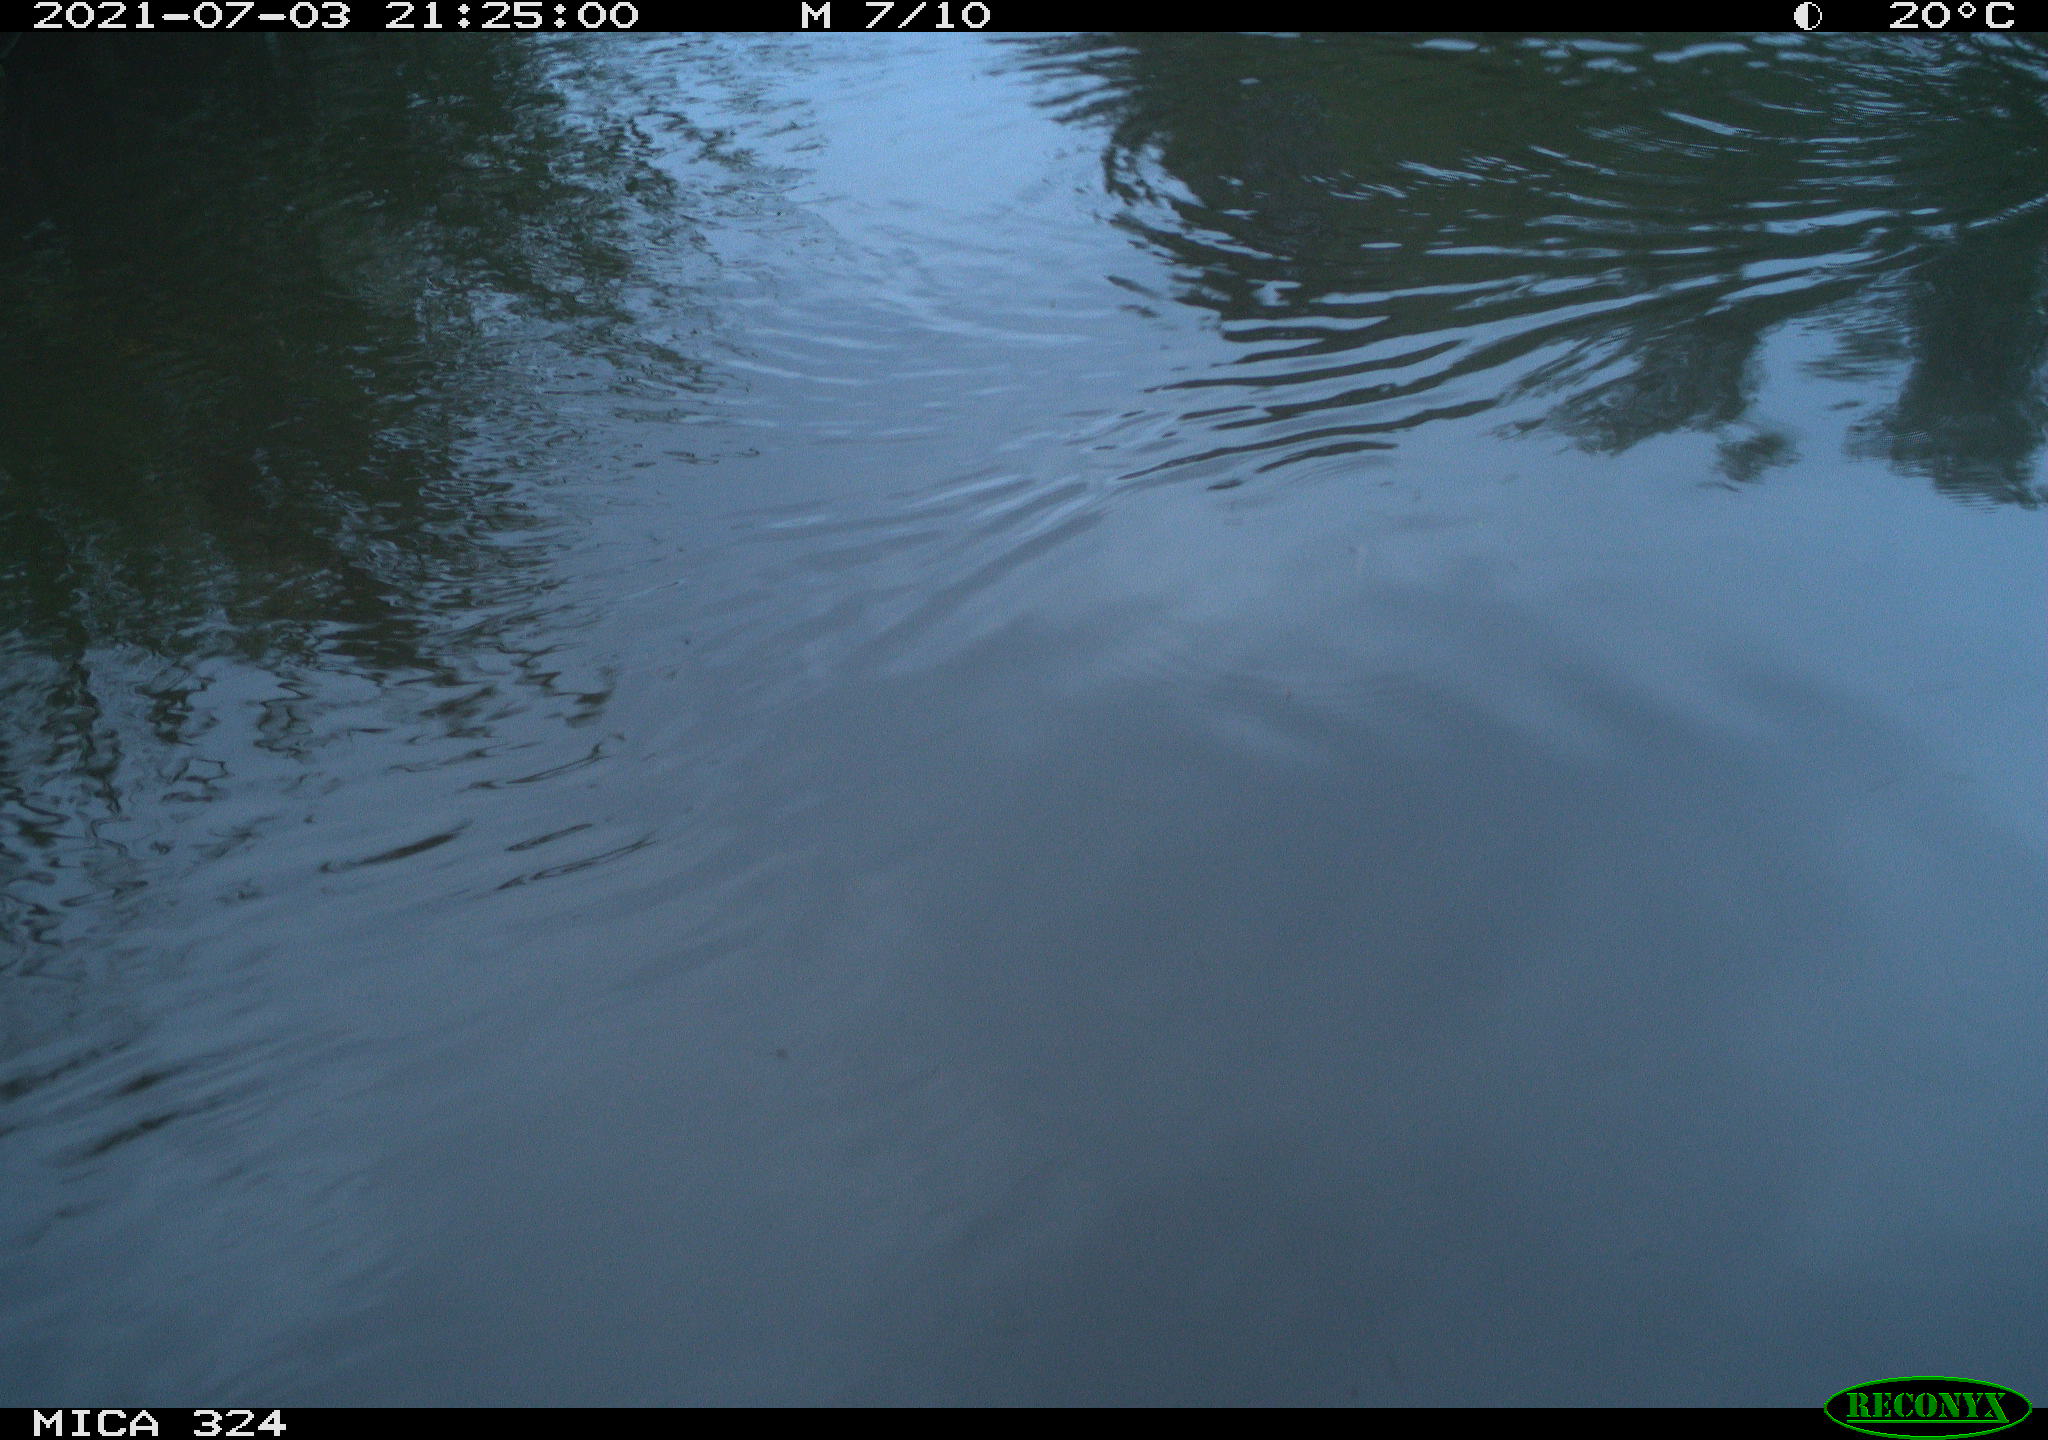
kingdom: Animalia
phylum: Chordata
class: Mammalia
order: Rodentia
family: Cricetidae
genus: Ondatra
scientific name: Ondatra zibethicus
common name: Muskrat
